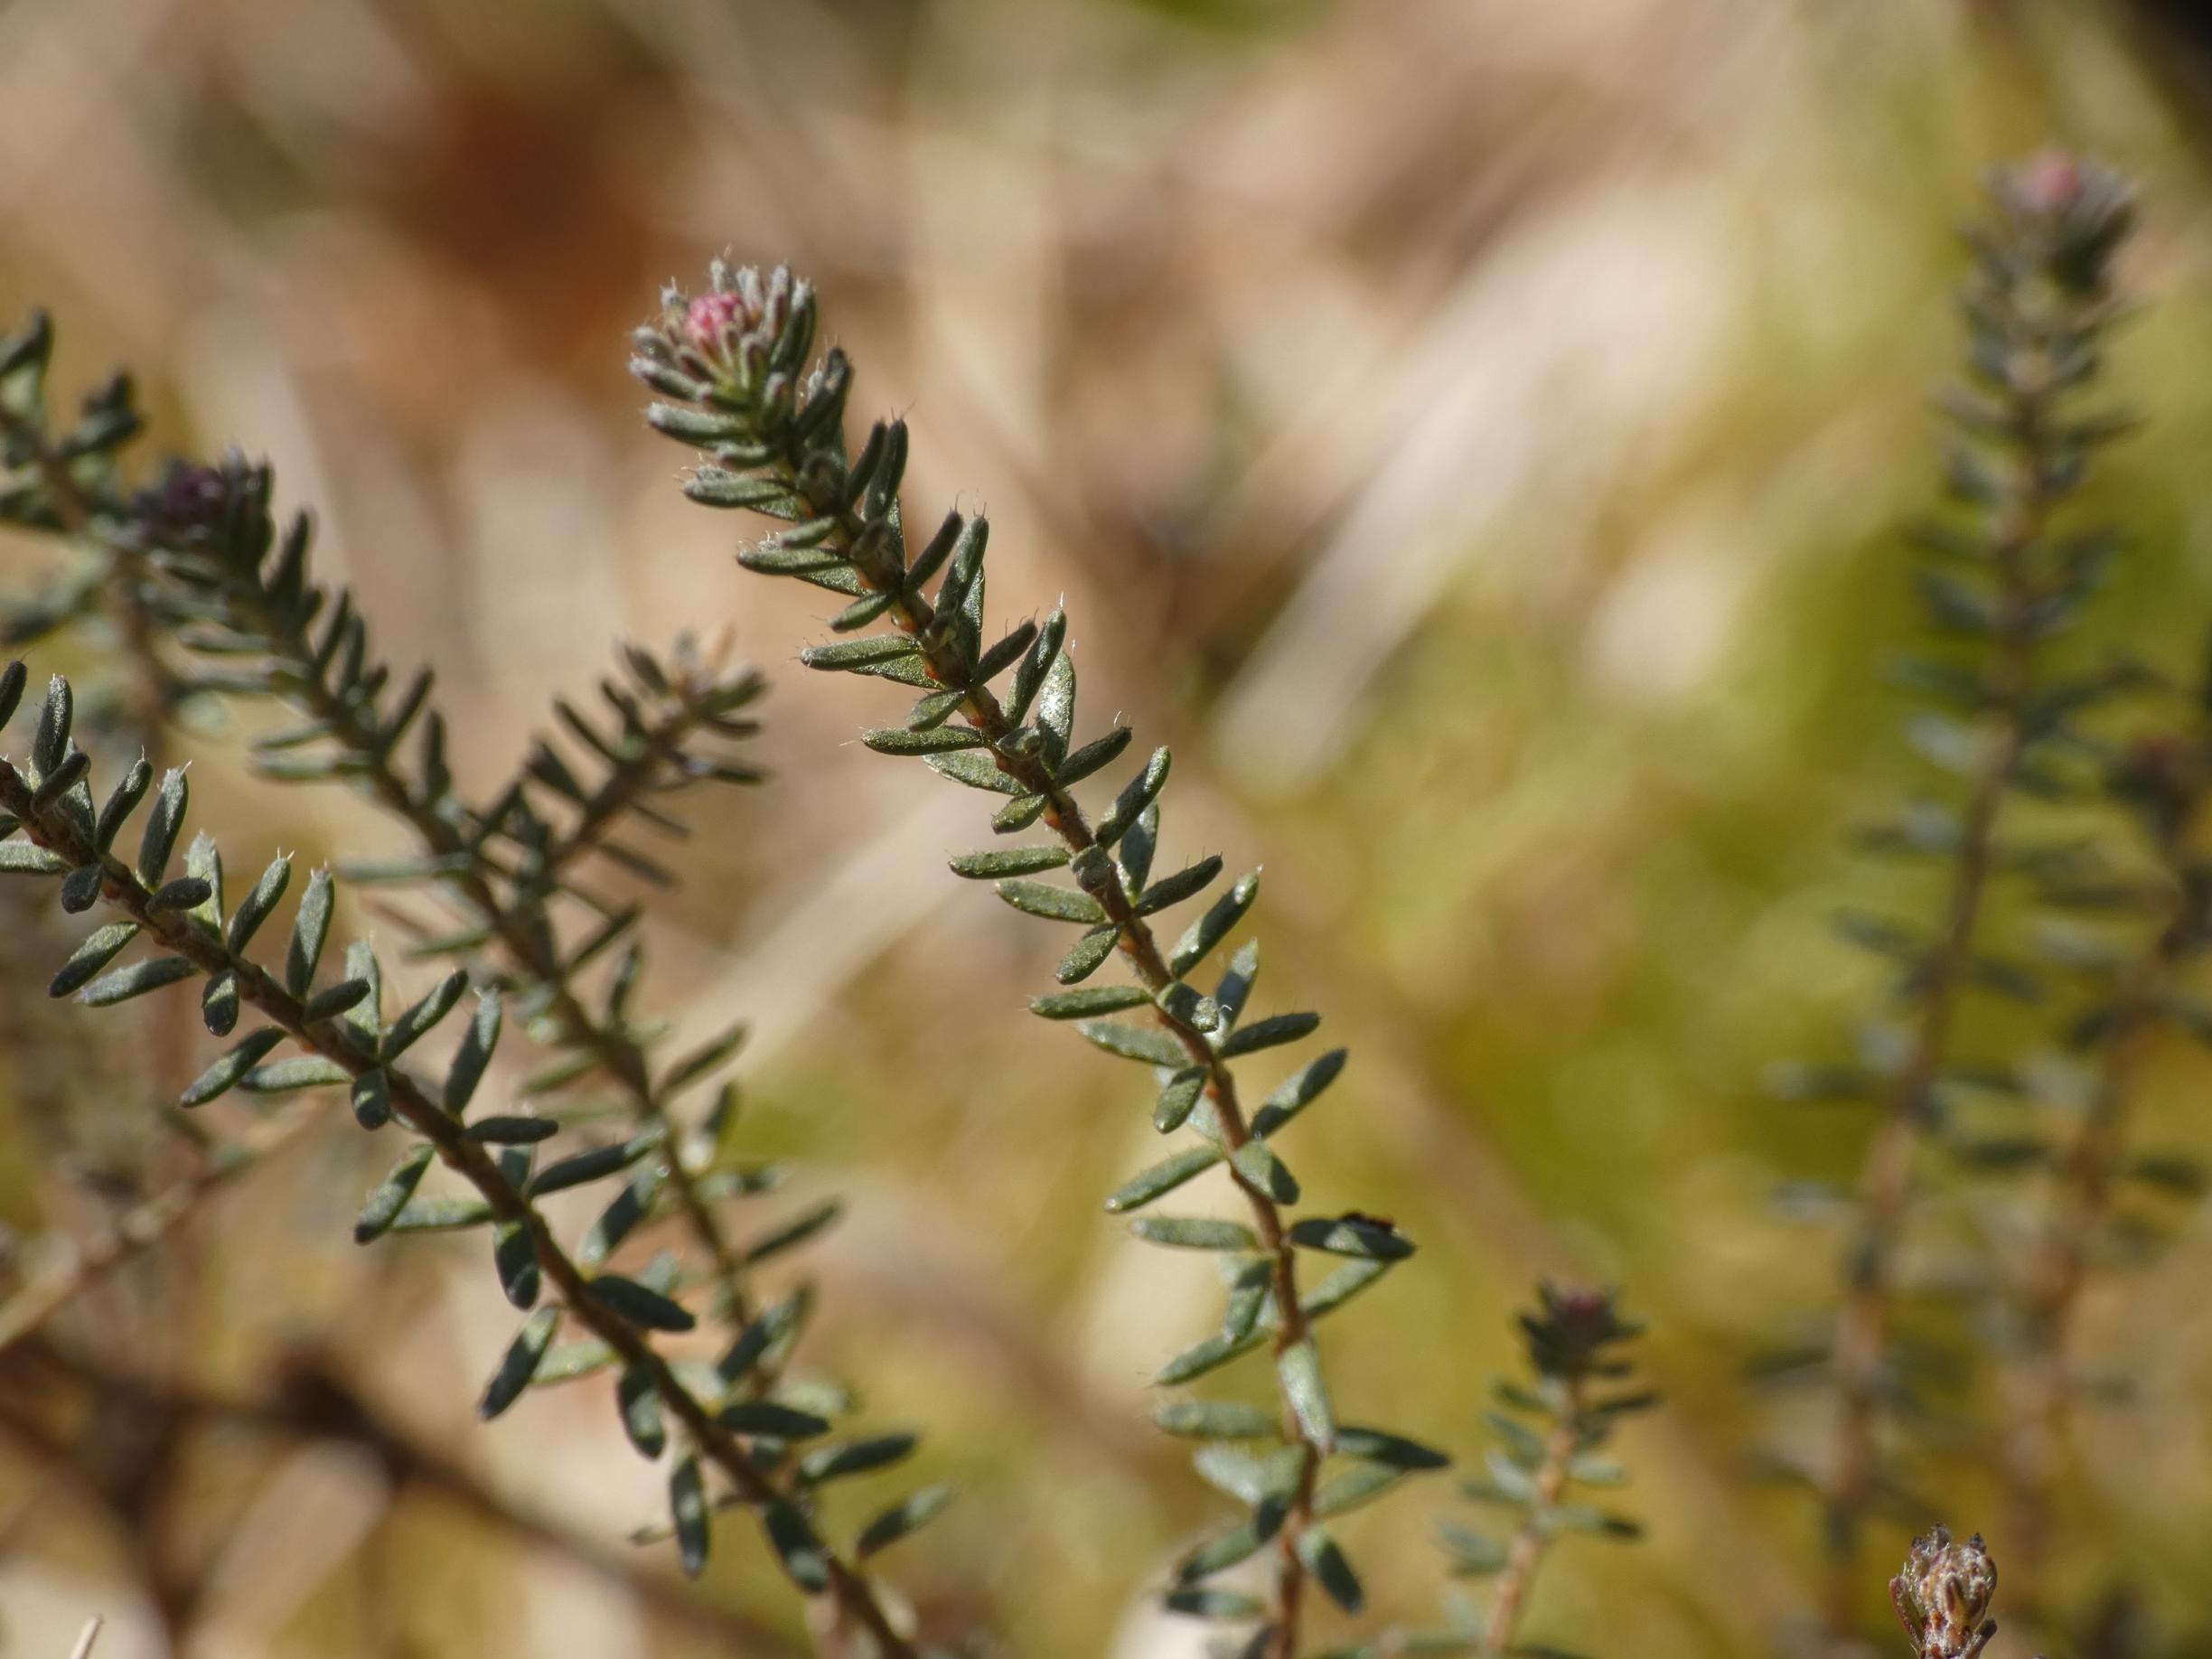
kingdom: Plantae
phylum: Tracheophyta
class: Magnoliopsida
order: Ericales
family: Ericaceae
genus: Erica
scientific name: Erica tetralix
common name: Klokkelyng
